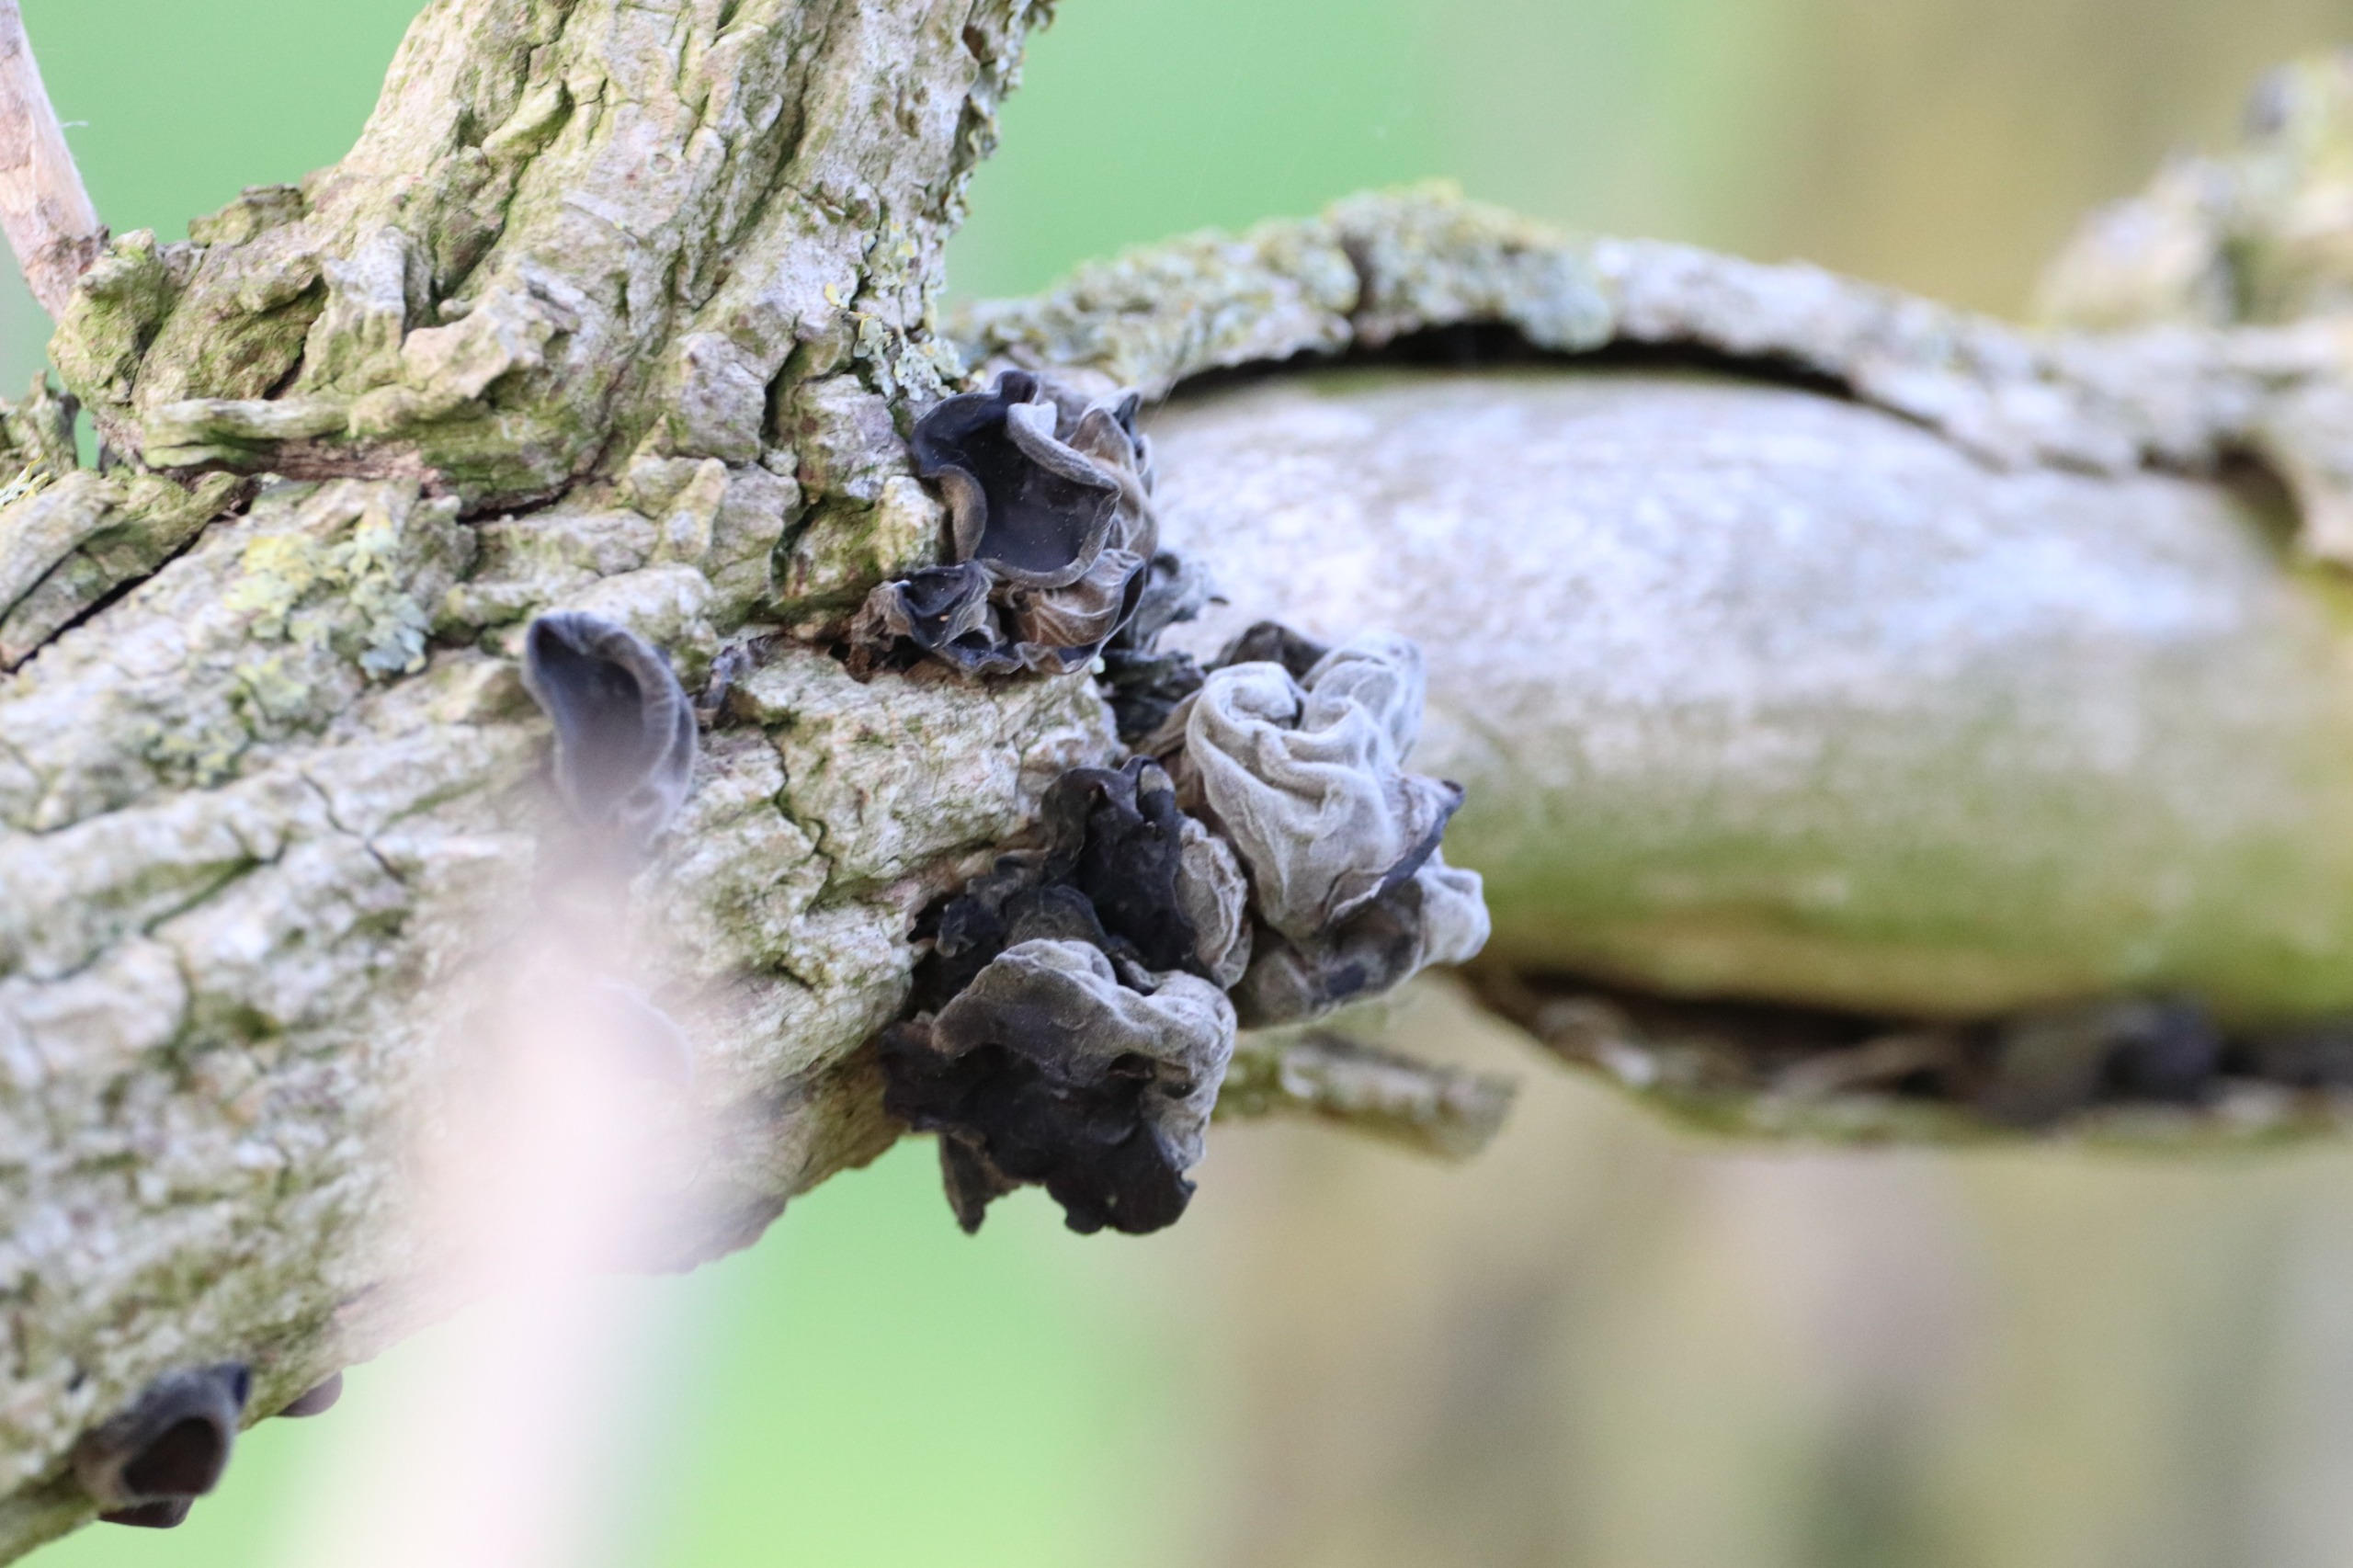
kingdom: Fungi
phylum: Basidiomycota
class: Agaricomycetes
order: Auriculariales
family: Auriculariaceae
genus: Auricularia
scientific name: Auricularia auricula-judae
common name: Almindelig judasøre
